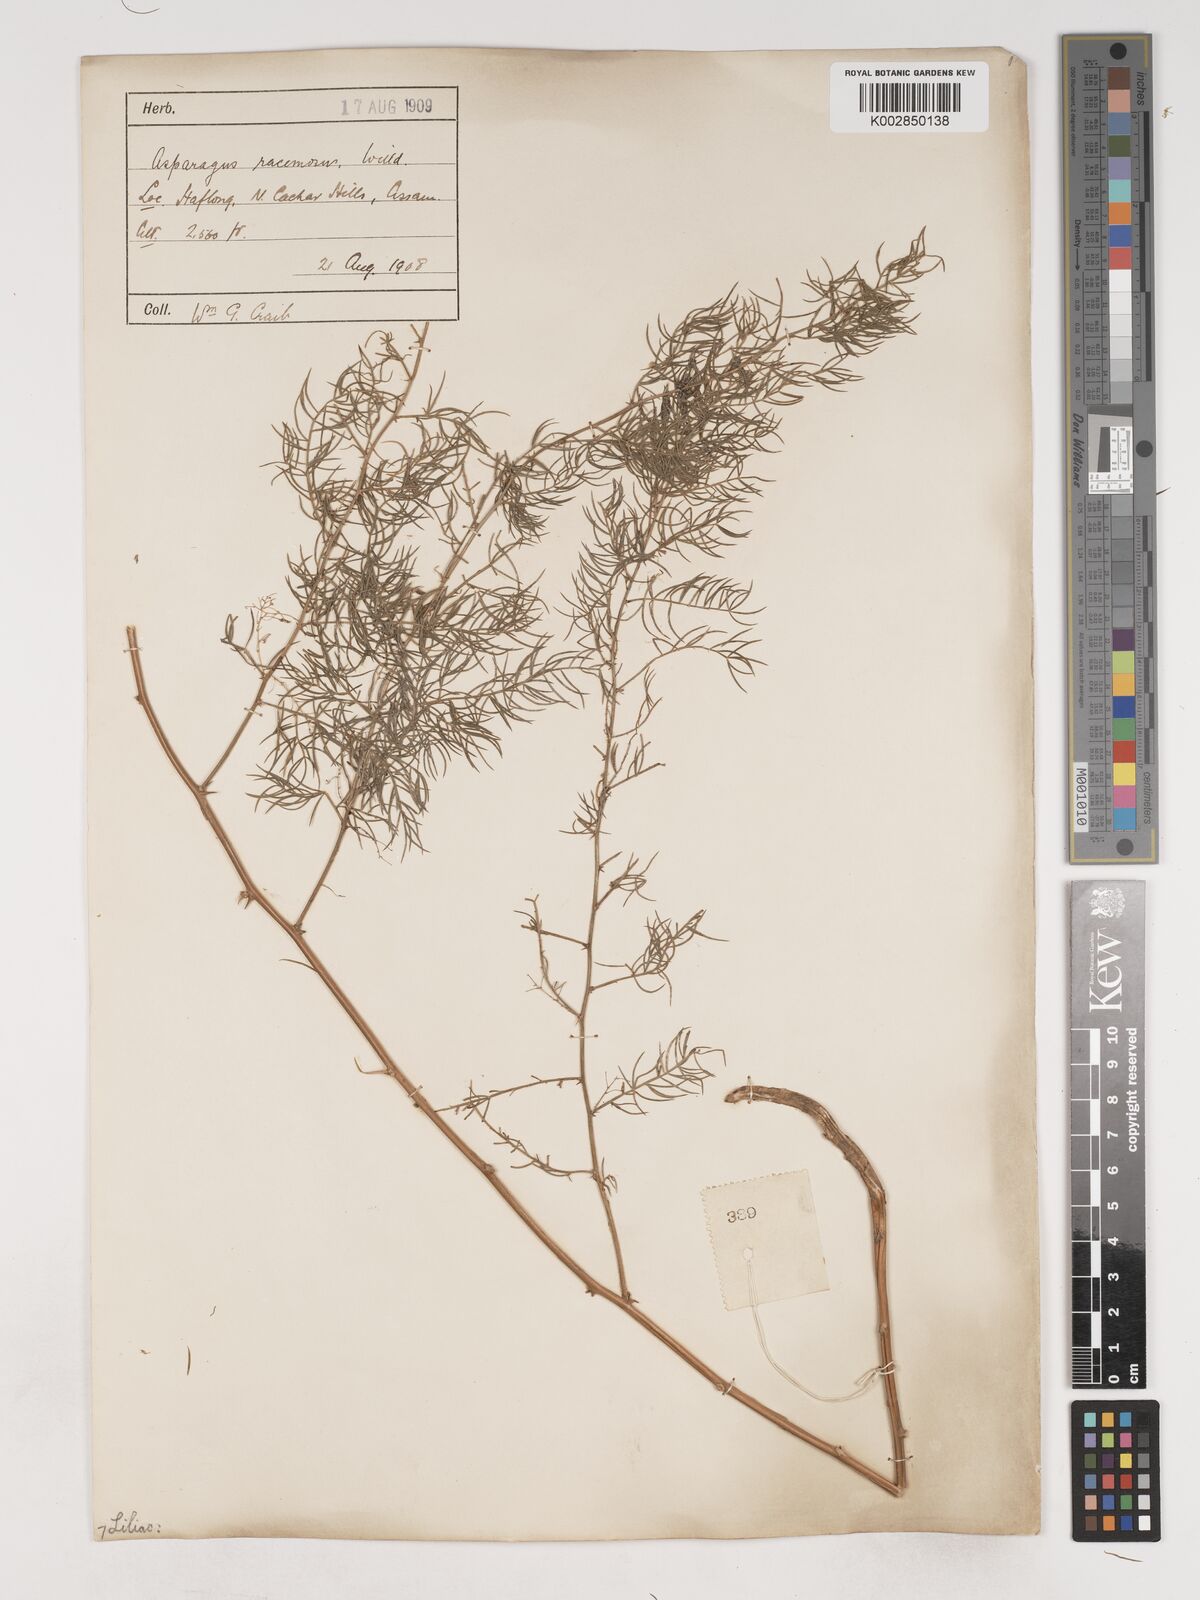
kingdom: Plantae
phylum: Tracheophyta
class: Liliopsida
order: Asparagales
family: Asparagaceae
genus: Asparagus
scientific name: Asparagus racemosus
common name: Asparagus-fern
